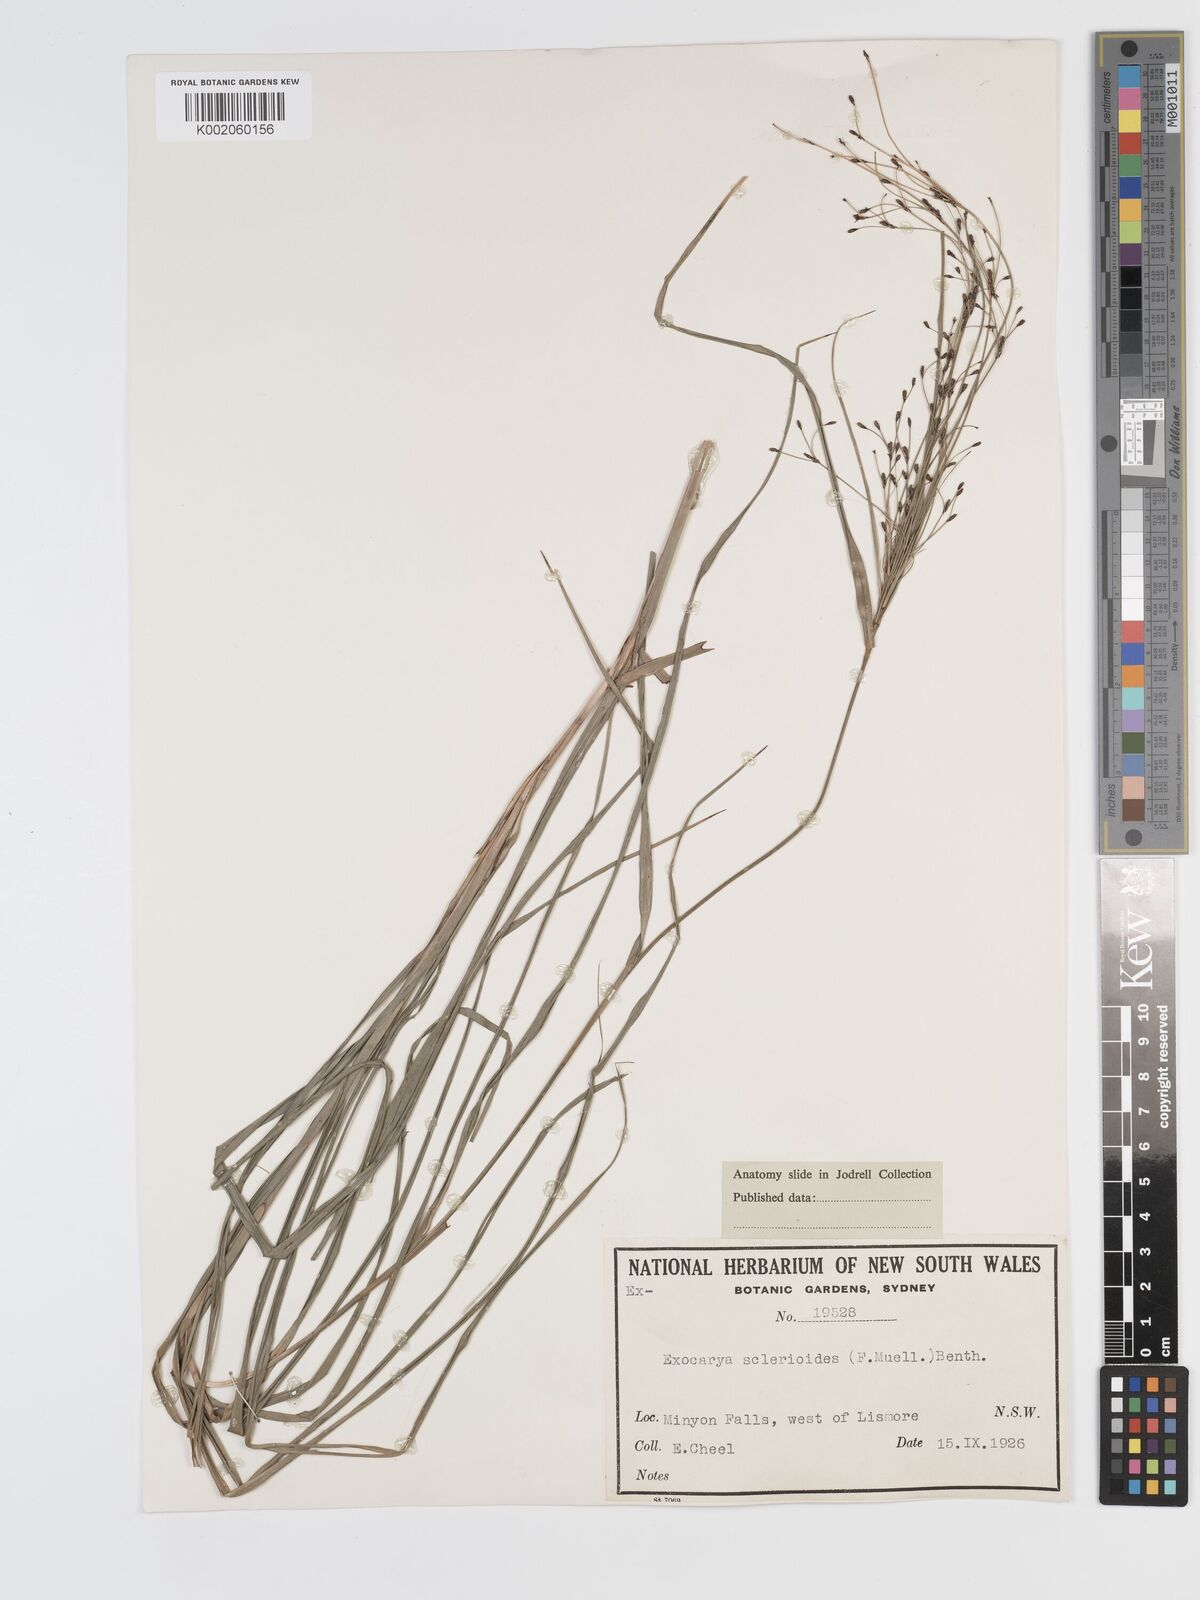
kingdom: Plantae
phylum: Tracheophyta
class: Liliopsida
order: Poales
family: Cyperaceae
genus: Exocarya
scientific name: Exocarya sclerioides
